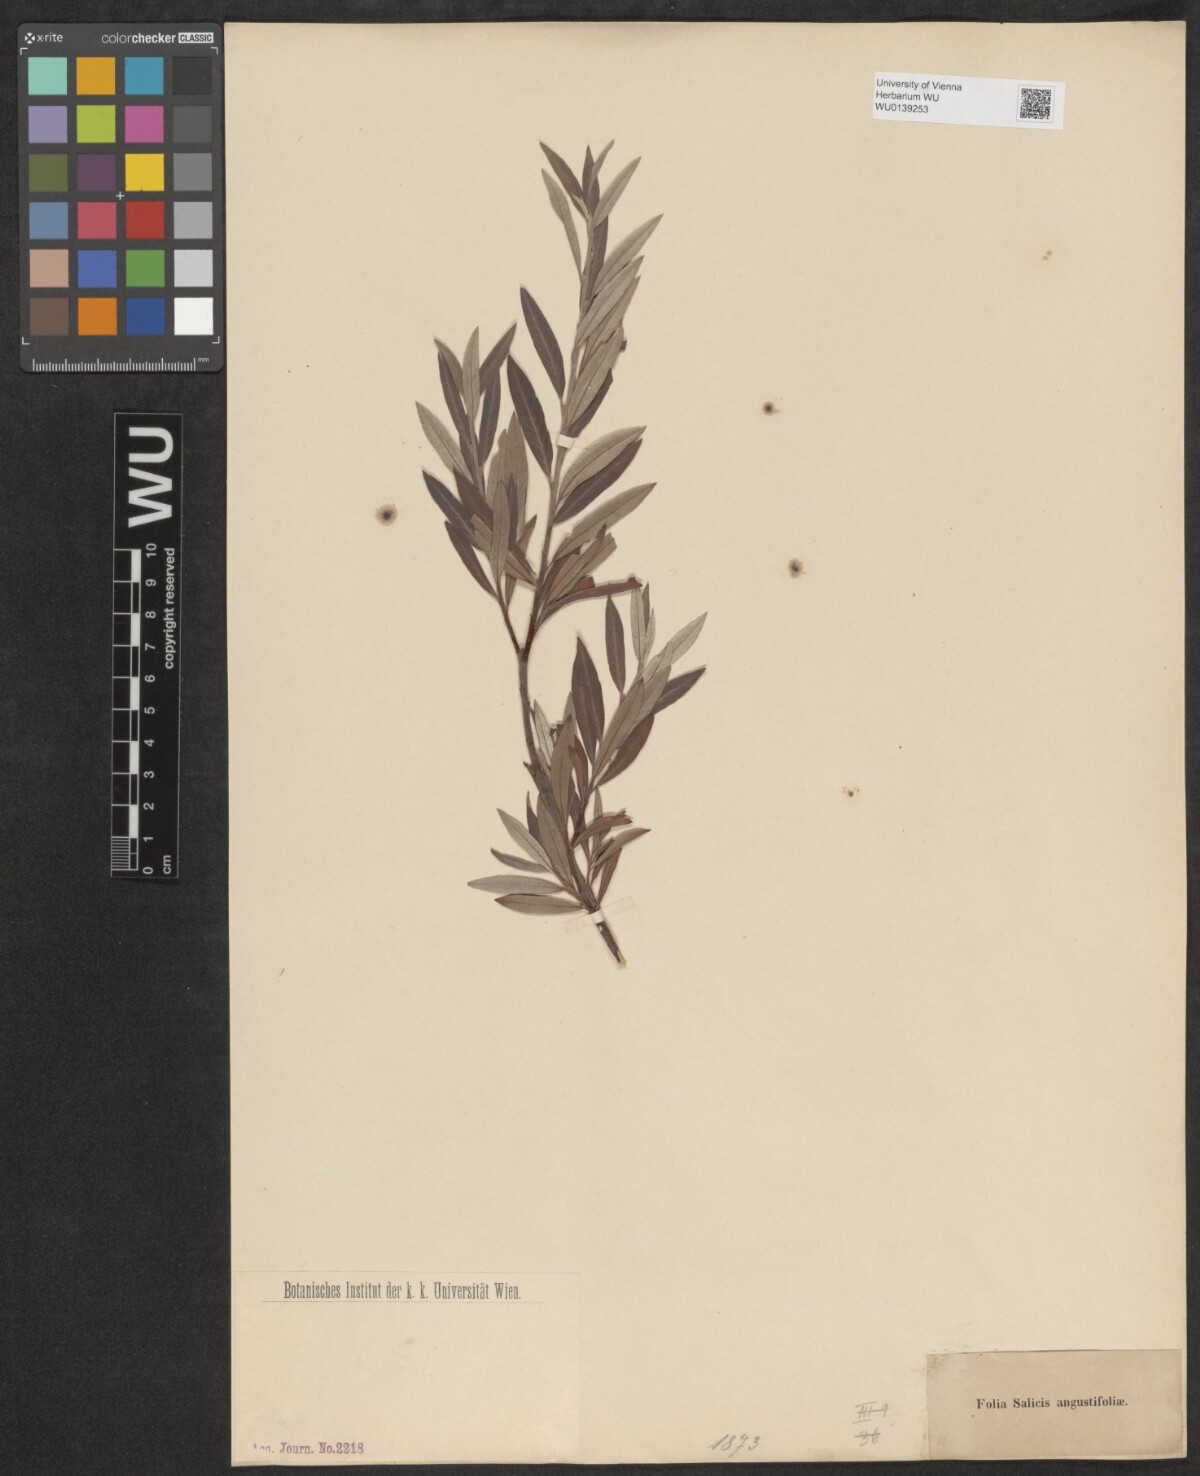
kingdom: Plantae
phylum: Tracheophyta
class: Magnoliopsida
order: Malpighiales
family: Salicaceae
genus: Salix
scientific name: Salix repens
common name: Creeping willow
